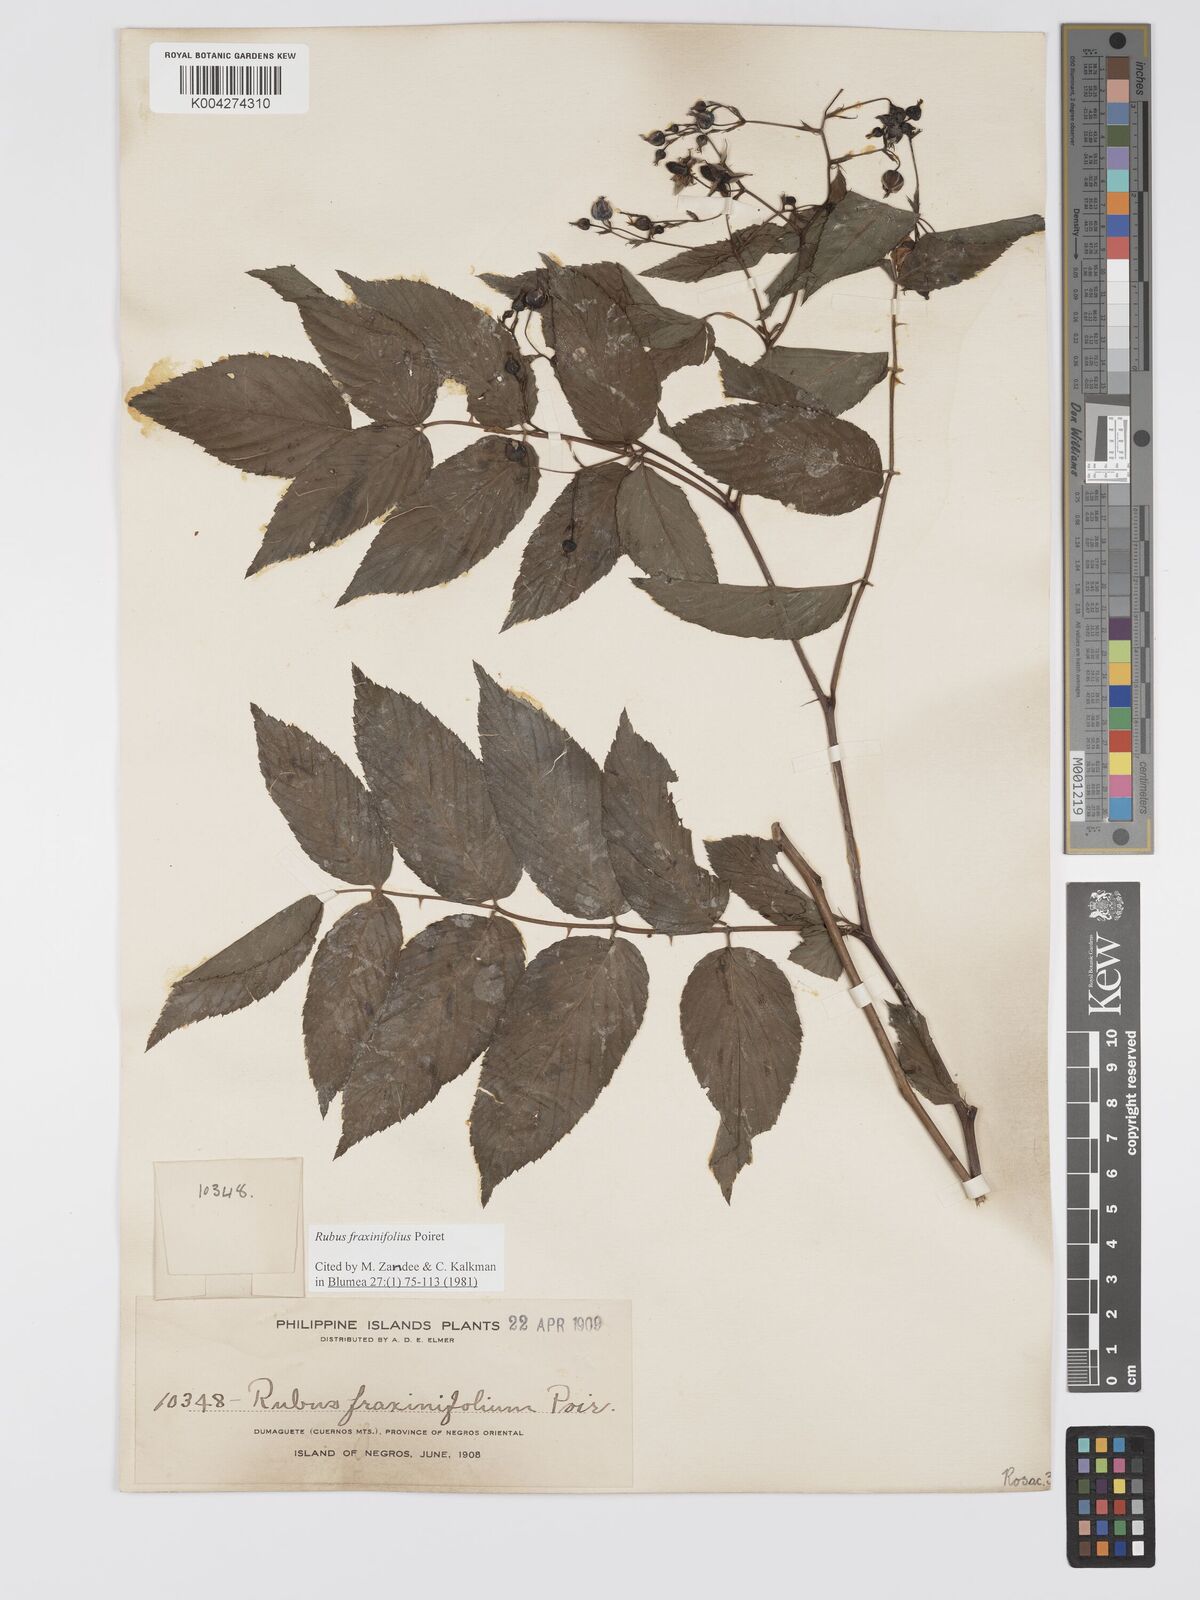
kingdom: Plantae
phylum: Tracheophyta
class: Magnoliopsida
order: Rosales
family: Rosaceae
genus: Rubus
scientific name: Rubus fraxinifolius
